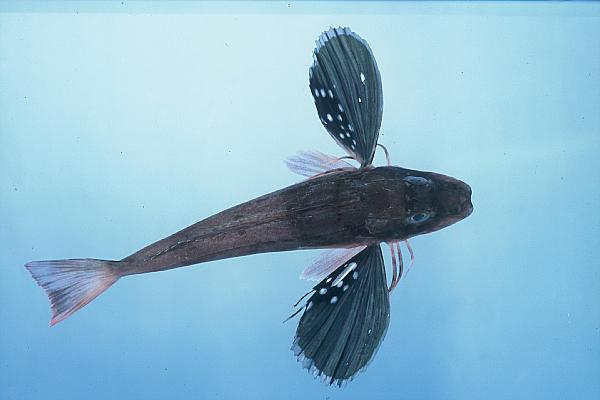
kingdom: Animalia
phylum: Chordata
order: Scorpaeniformes
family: Triglidae
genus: Chelidonichthys
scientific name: Chelidonichthys kumu
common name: Bluefin gurnard
